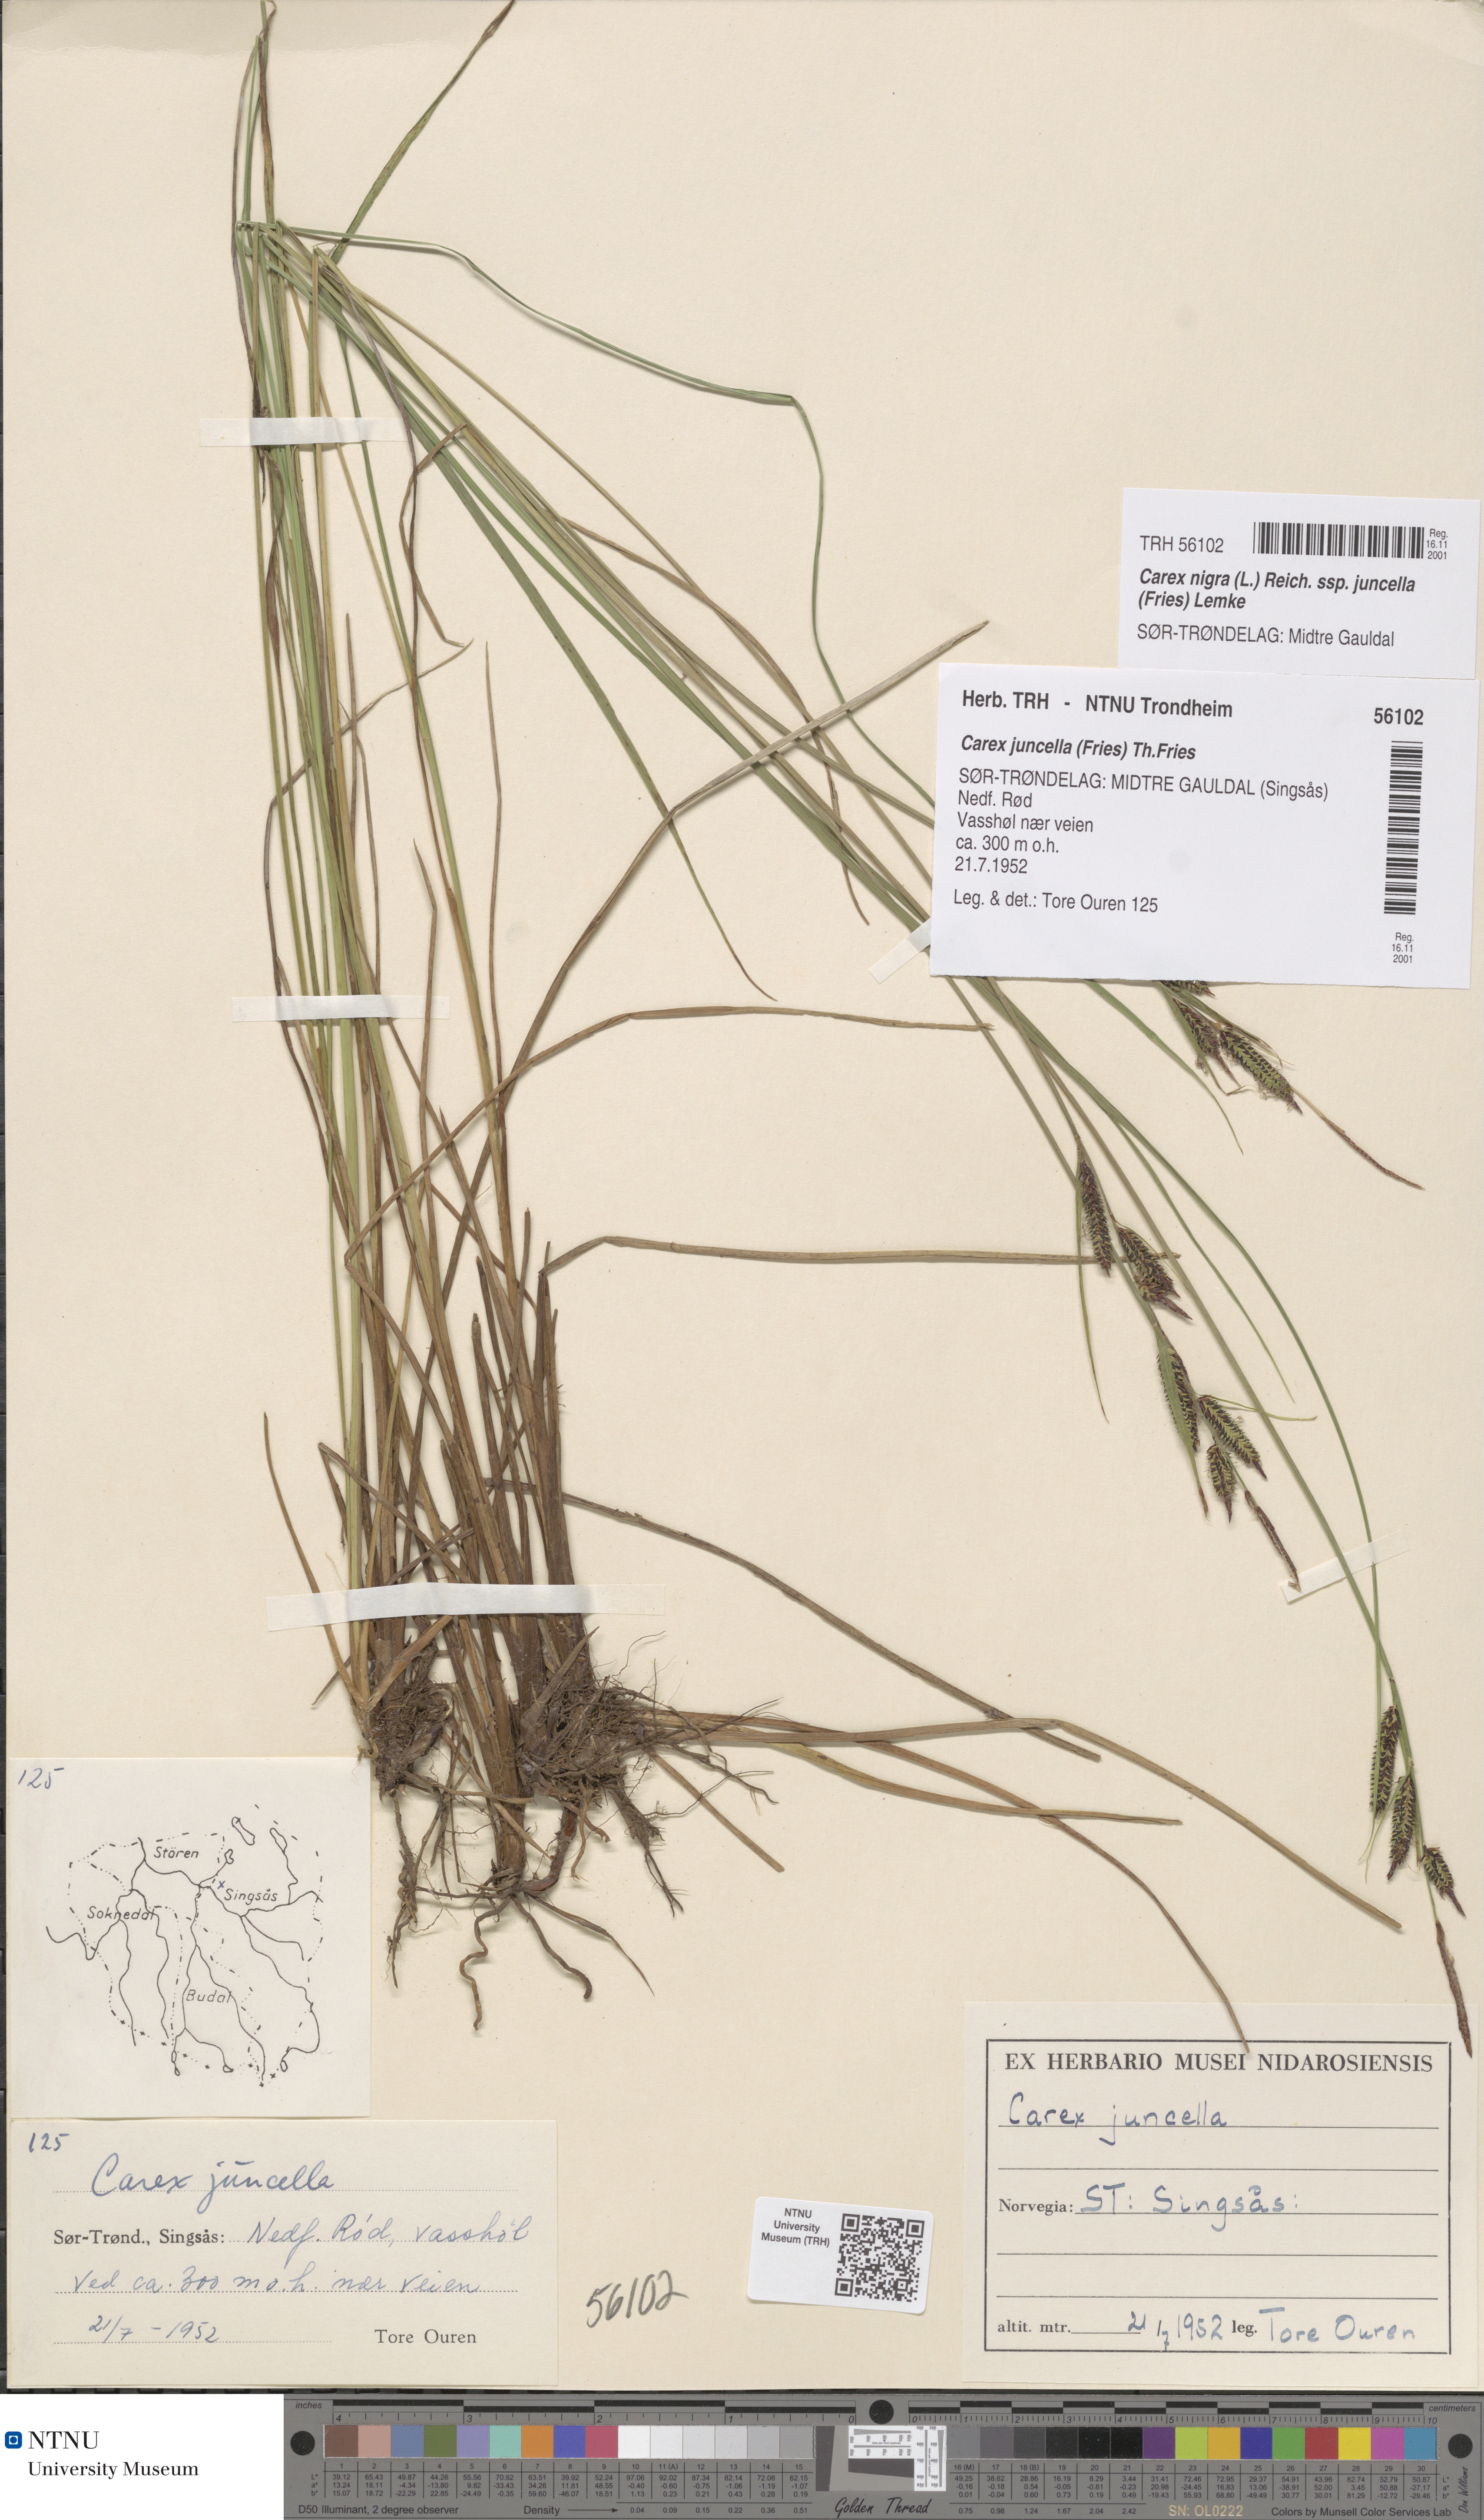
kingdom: Plantae
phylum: Tracheophyta
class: Liliopsida
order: Poales
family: Cyperaceae
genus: Carex
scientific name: Carex nigra
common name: Common sedge
